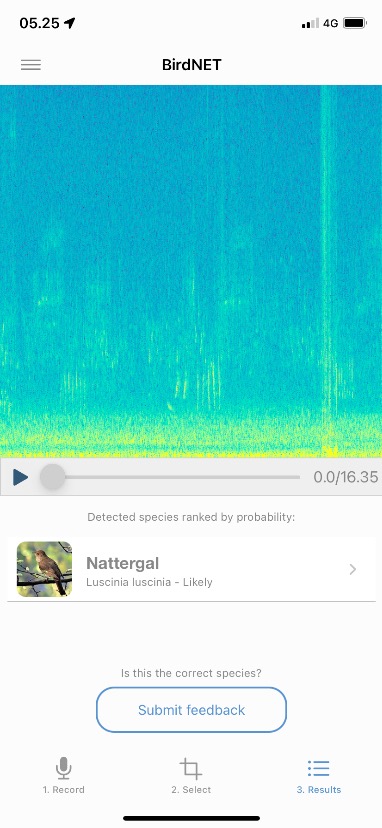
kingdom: Animalia
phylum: Chordata
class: Aves
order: Passeriformes
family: Muscicapidae
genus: Luscinia
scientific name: Luscinia luscinia
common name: Nattergal
